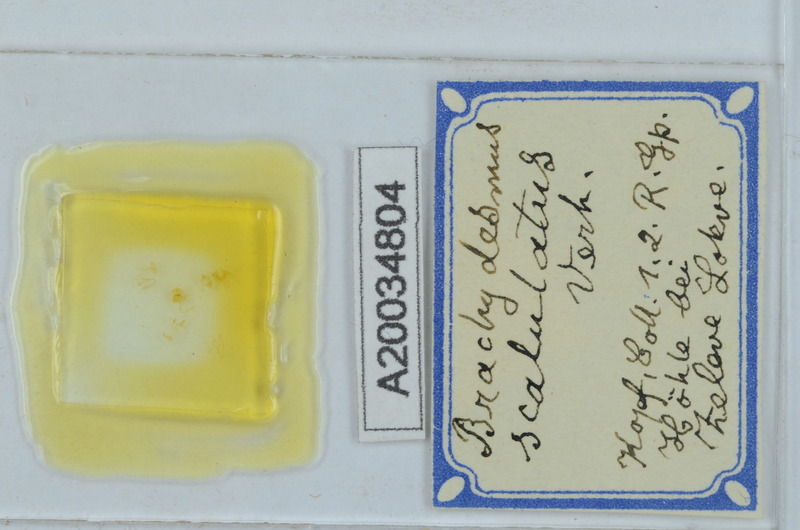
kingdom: Animalia
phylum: Arthropoda
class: Diplopoda
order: Polydesmida
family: Polydesmidae
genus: Brachydesmus
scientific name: Brachydesmus
